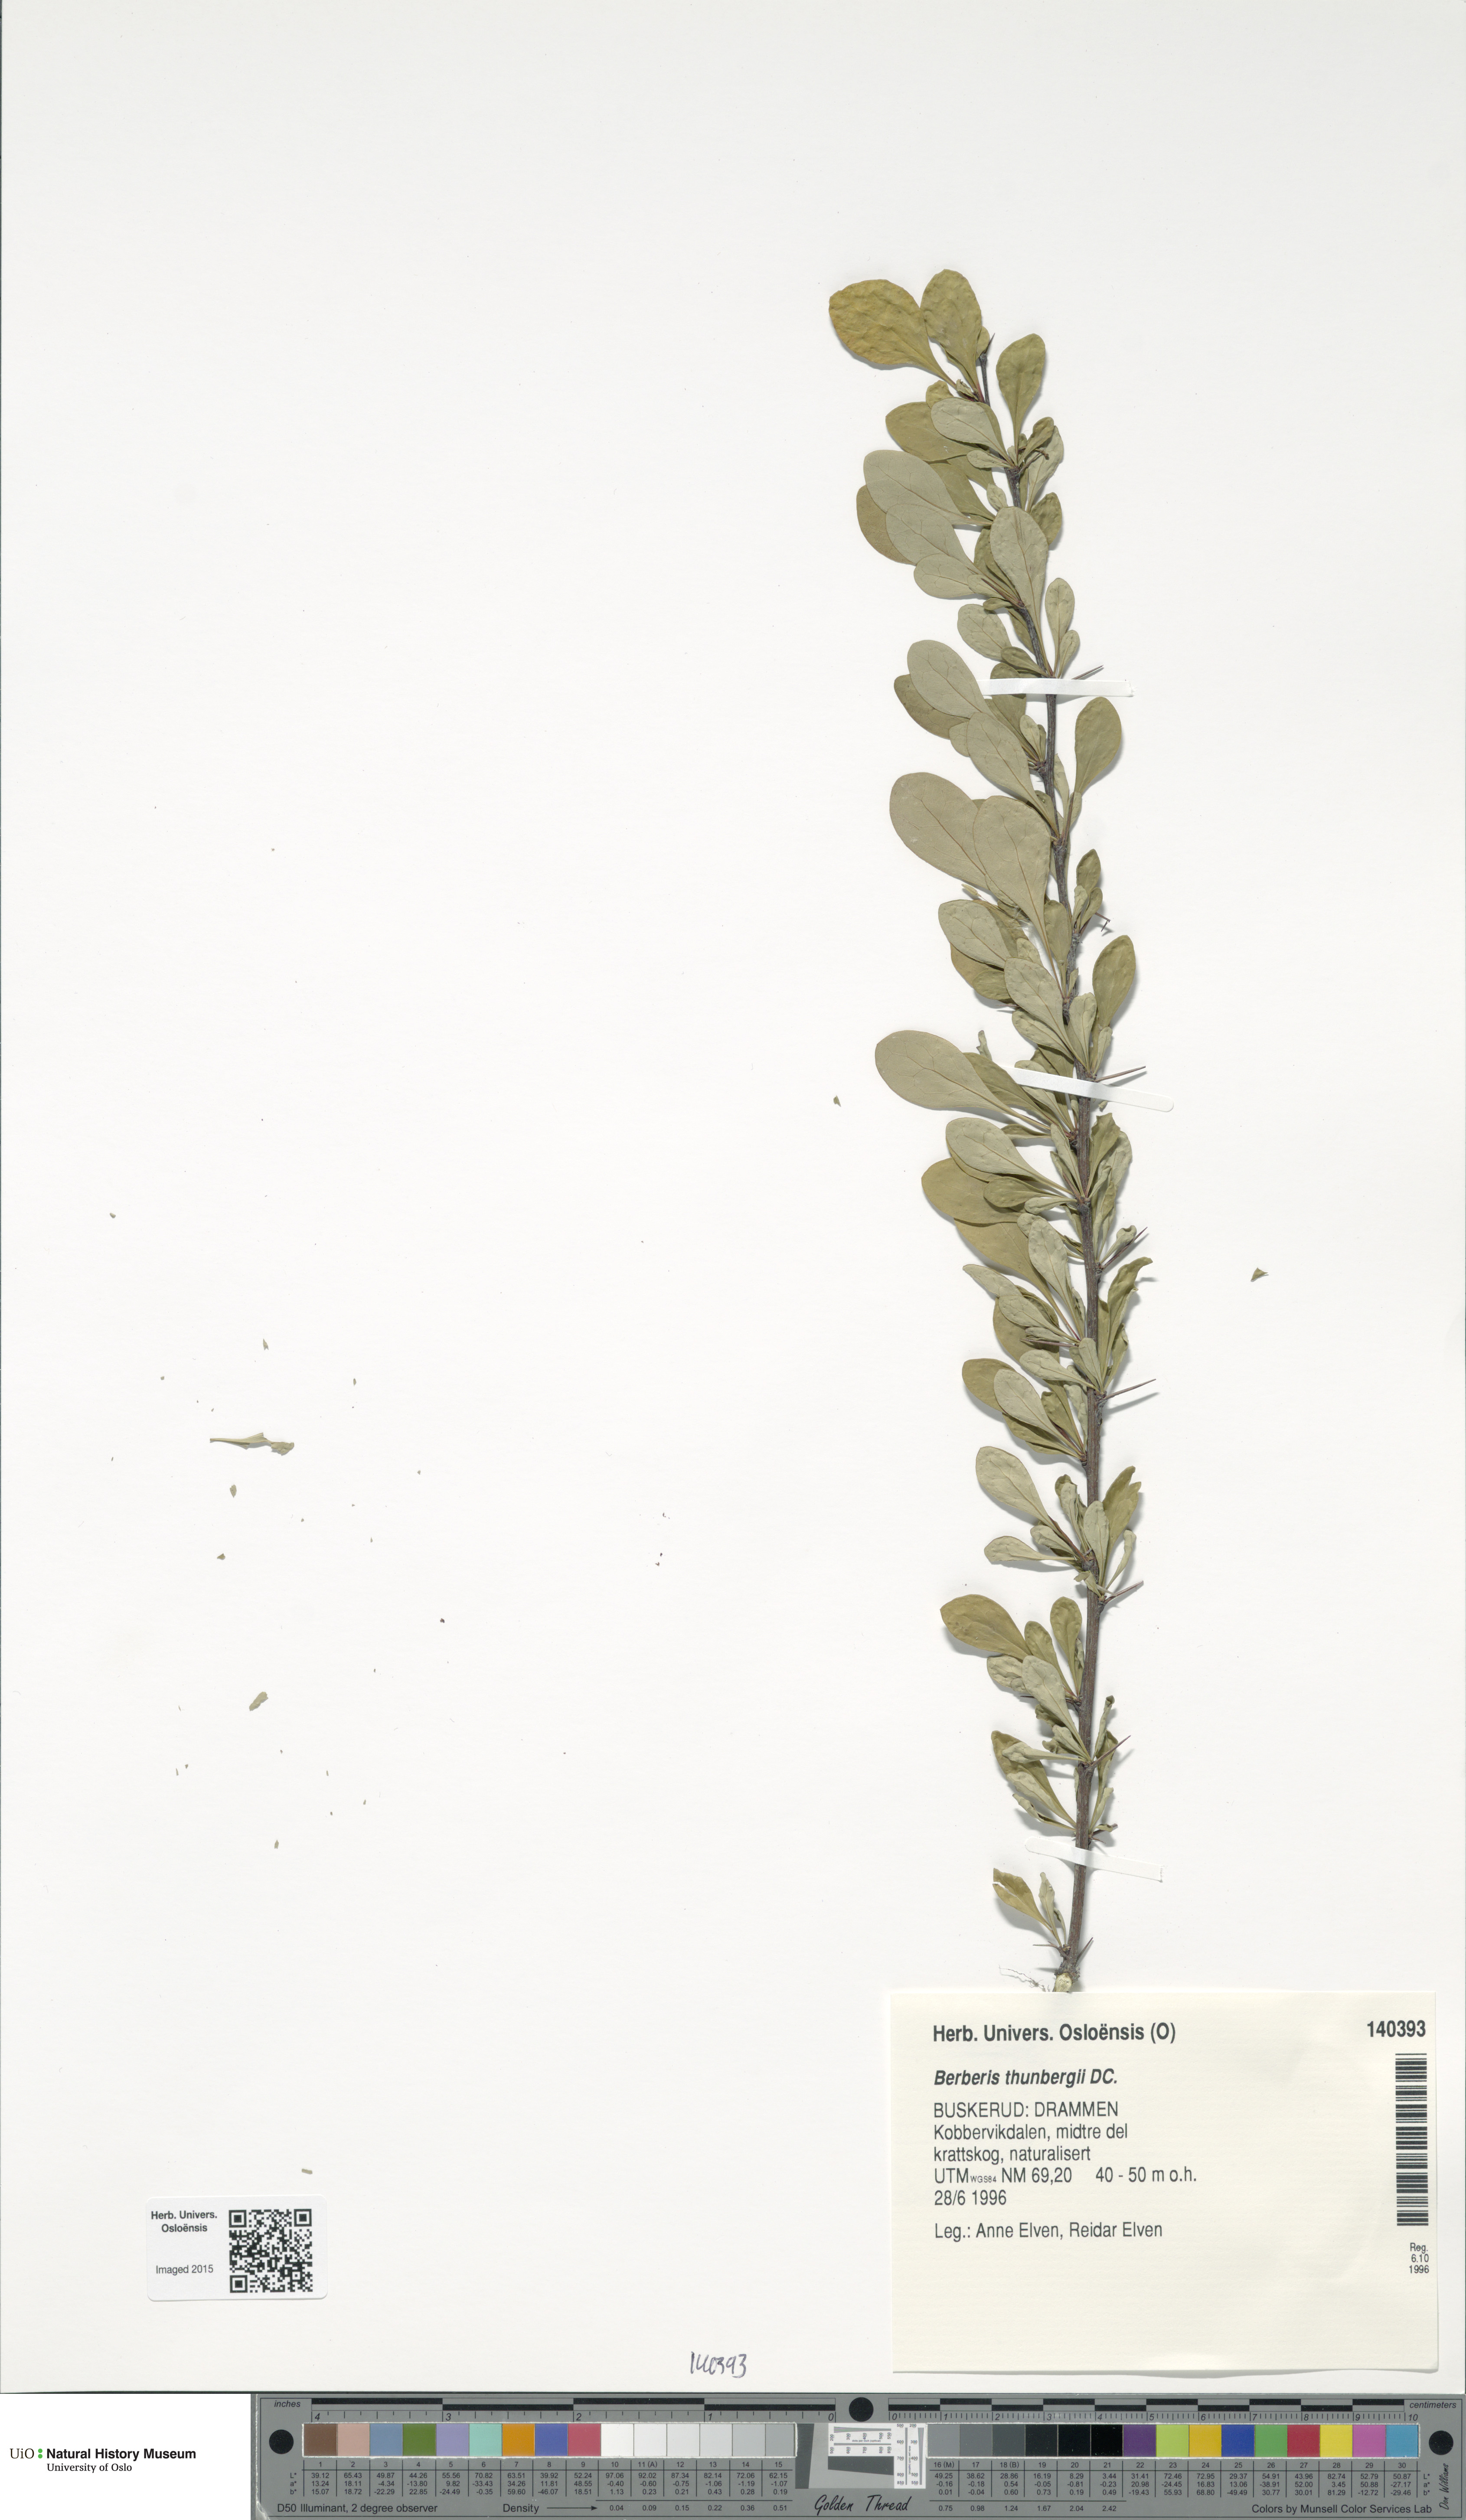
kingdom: Plantae
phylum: Tracheophyta
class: Magnoliopsida
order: Ranunculales
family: Berberidaceae
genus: Berberis
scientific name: Berberis thunbergii
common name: Japanese barberry
